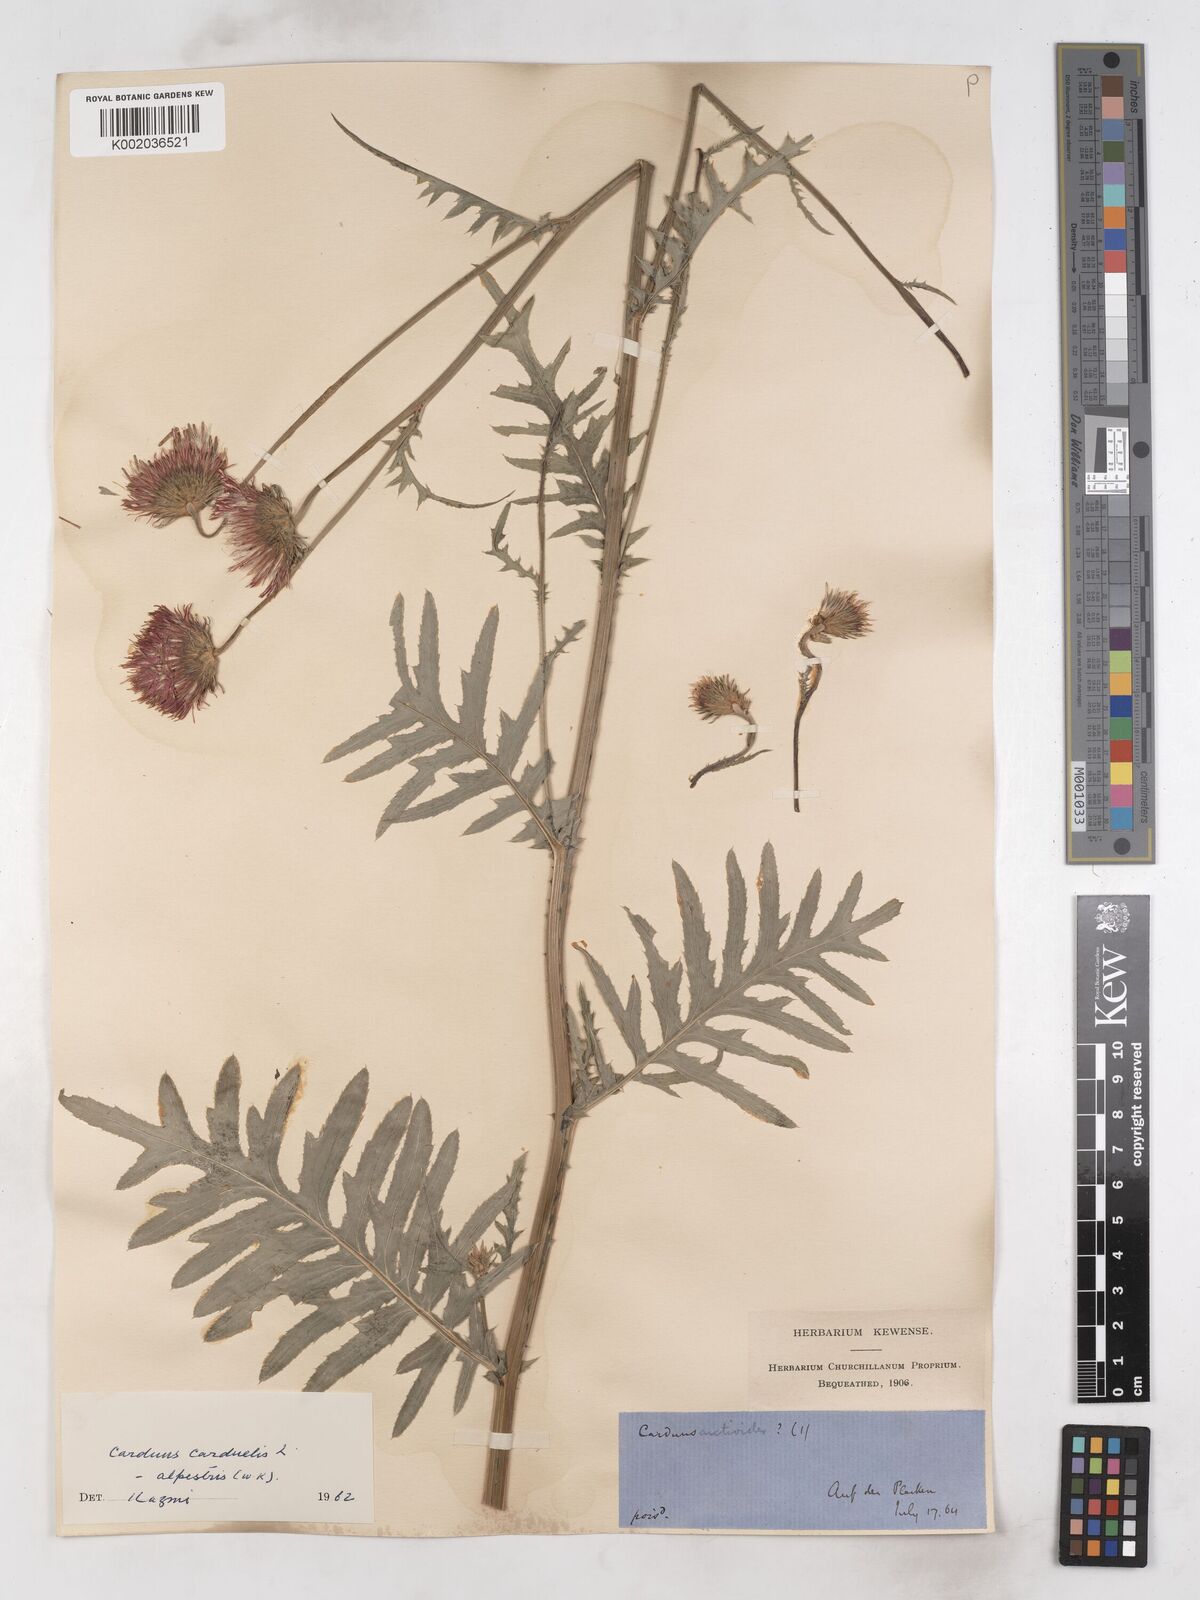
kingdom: Plantae
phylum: Tracheophyta
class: Magnoliopsida
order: Asterales
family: Asteraceae
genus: Carduus
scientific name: Carduus carduelis
